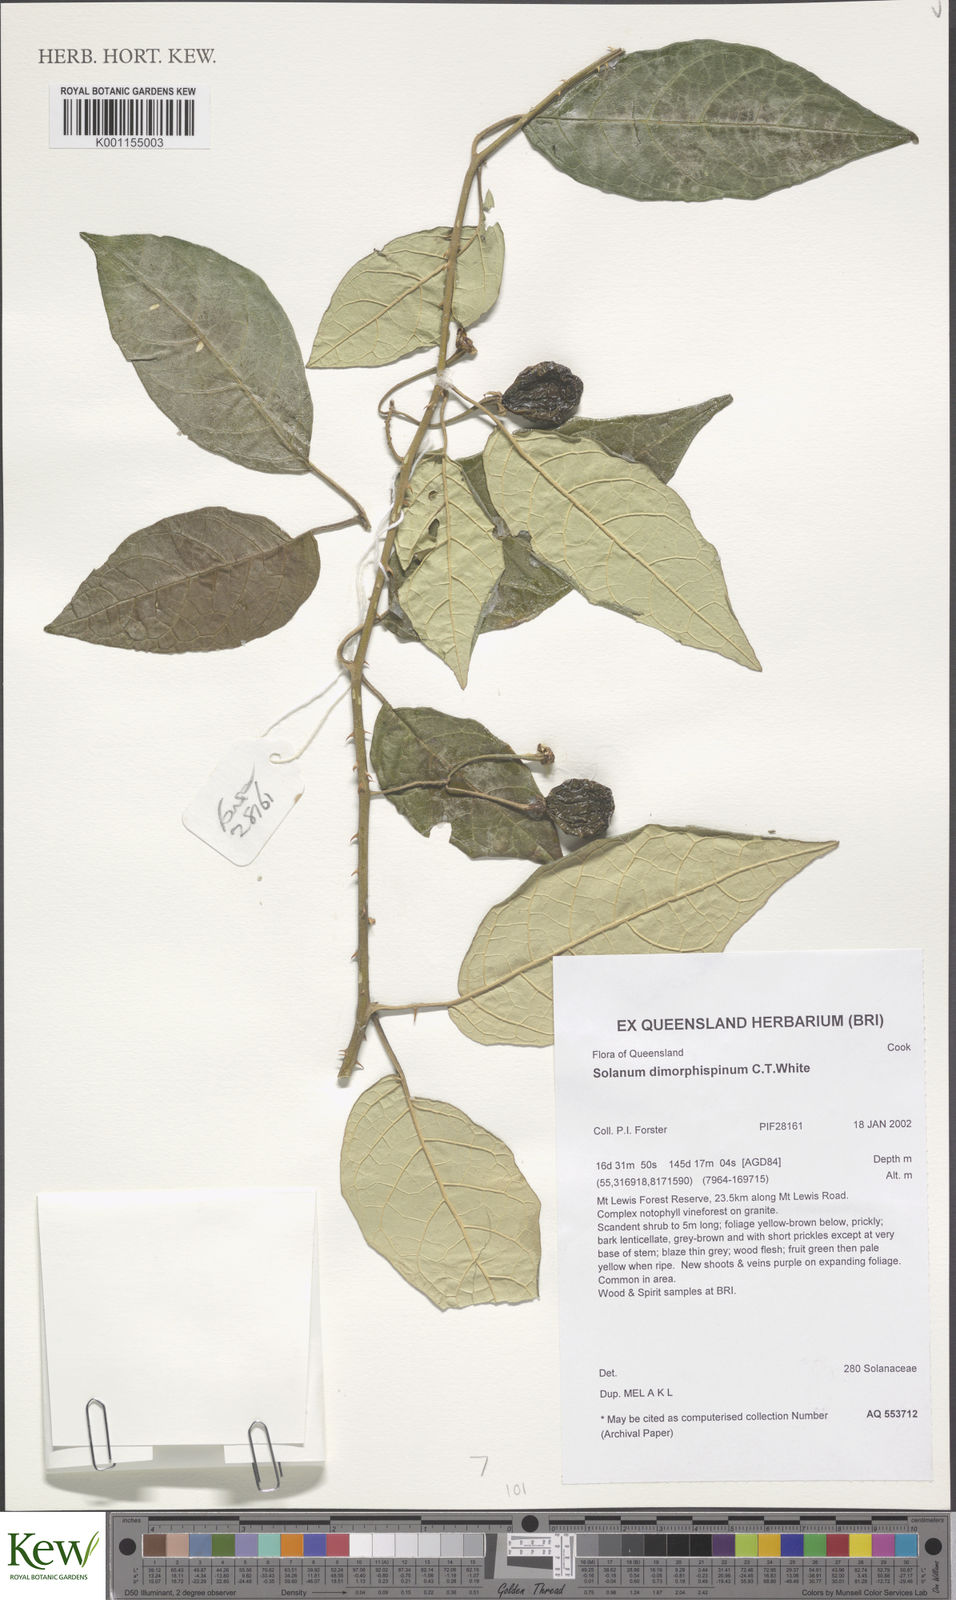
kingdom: Plantae
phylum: Tracheophyta
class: Magnoliopsida
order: Solanales
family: Solanaceae
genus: Solanum
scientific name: Solanum dimorphispinum
